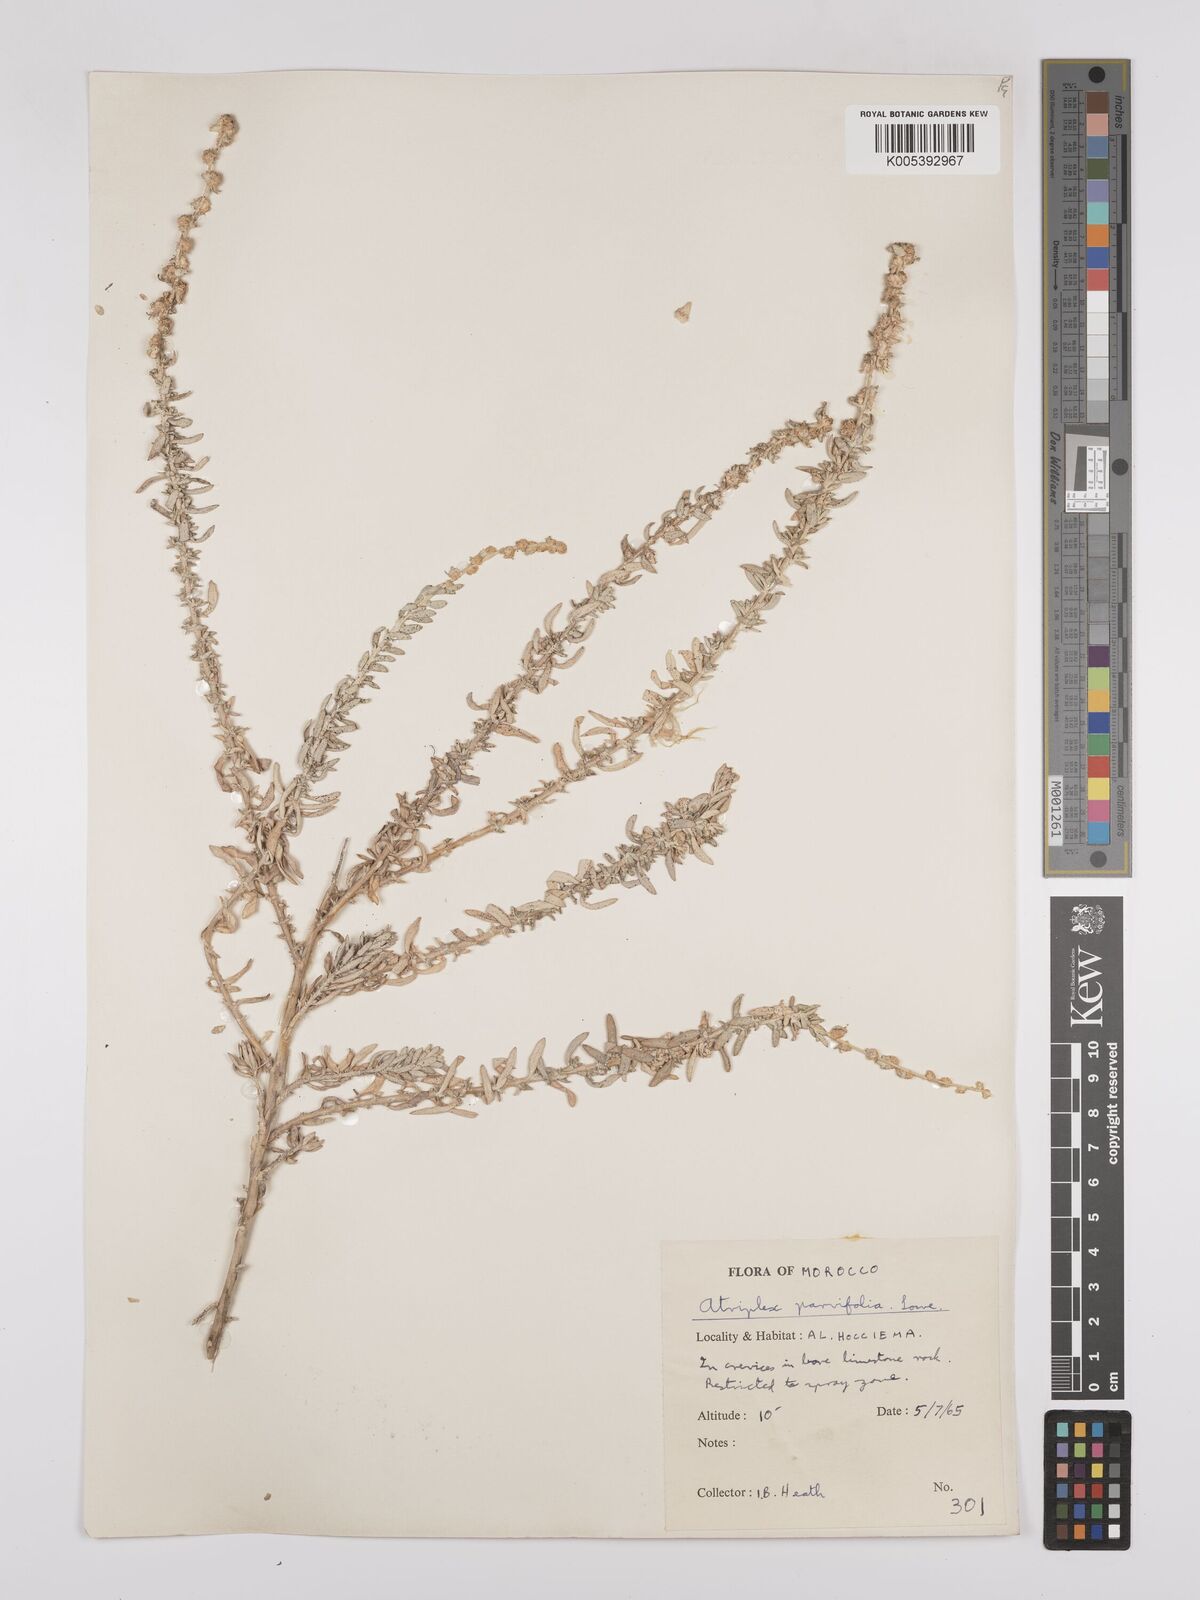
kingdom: Plantae
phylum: Tracheophyta
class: Magnoliopsida
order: Caryophyllales
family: Amaranthaceae
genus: Atriplex
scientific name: Atriplex
